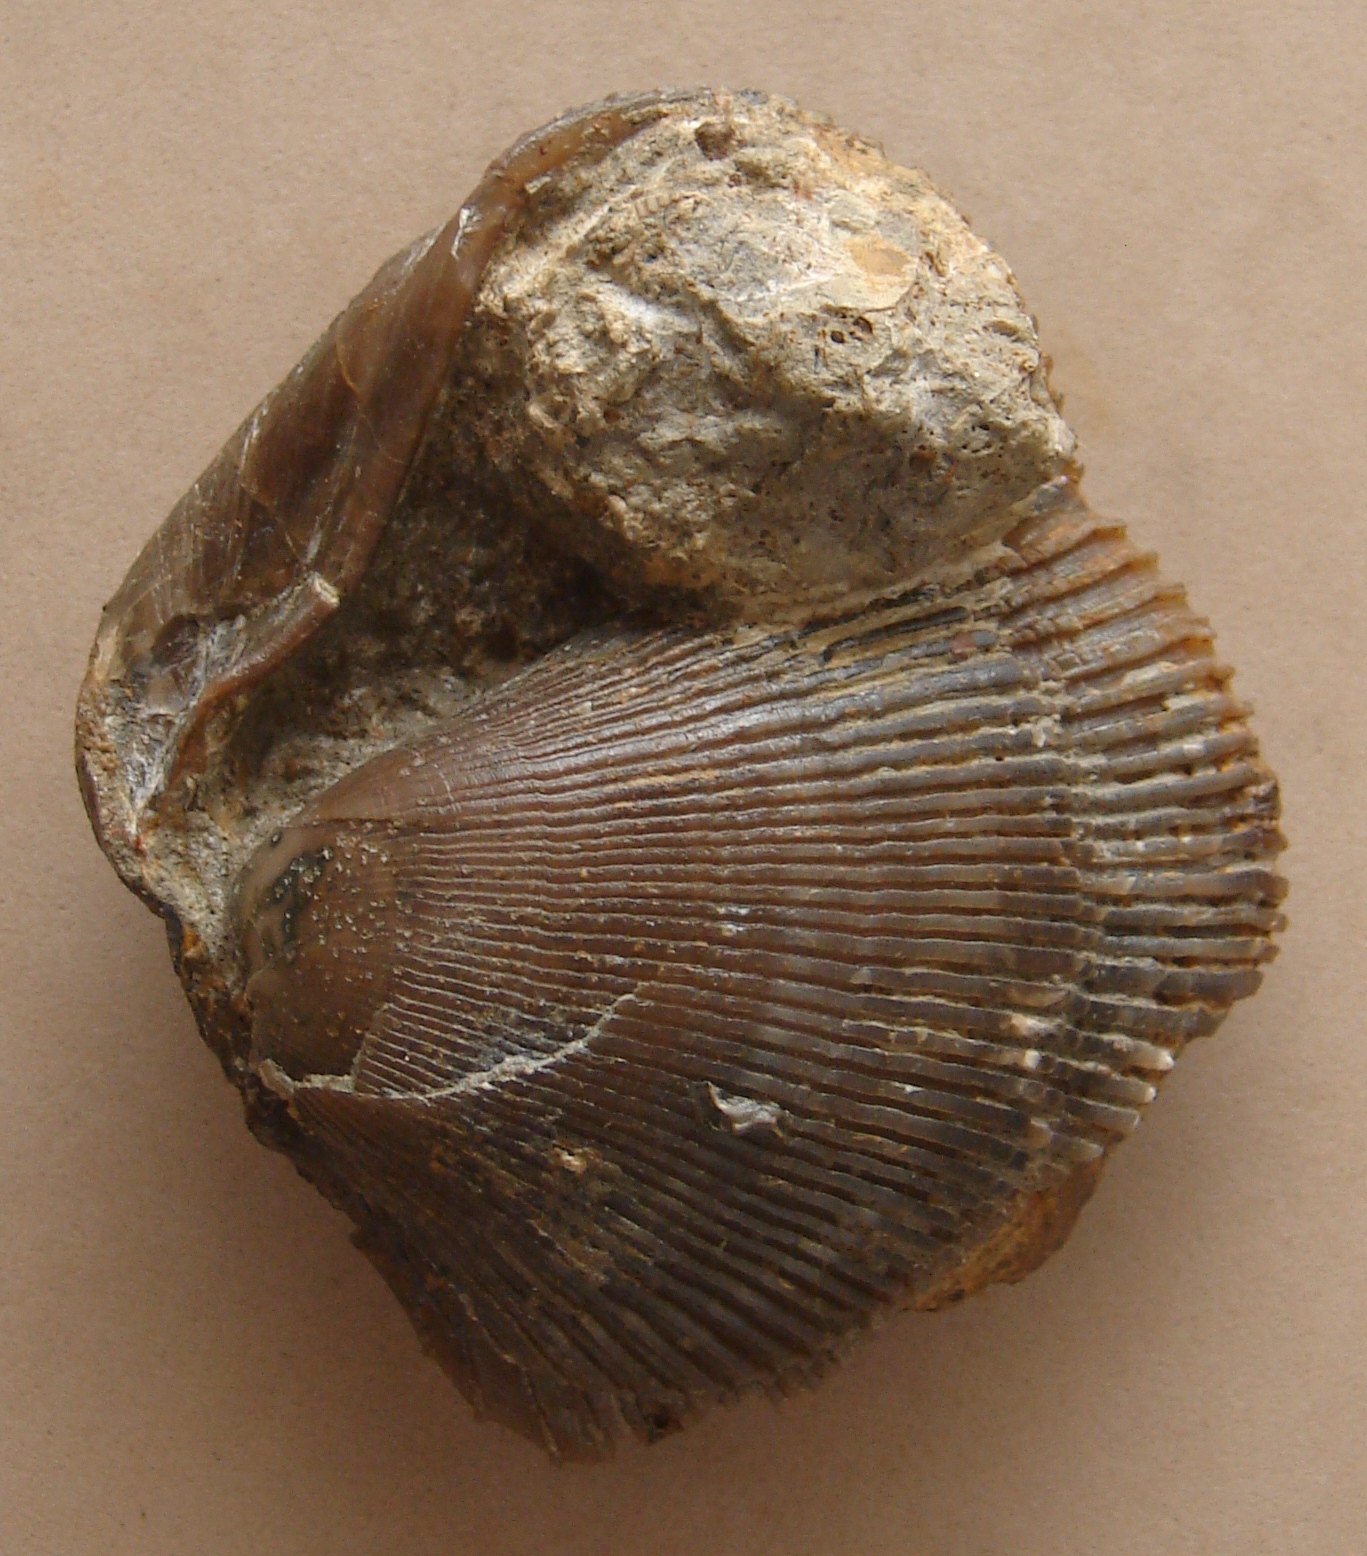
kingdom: Animalia
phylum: Cnidaria
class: Anthozoa
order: Scleractinia
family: Thecosmiliidae
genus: Montlivaltia
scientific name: Montlivaltia
